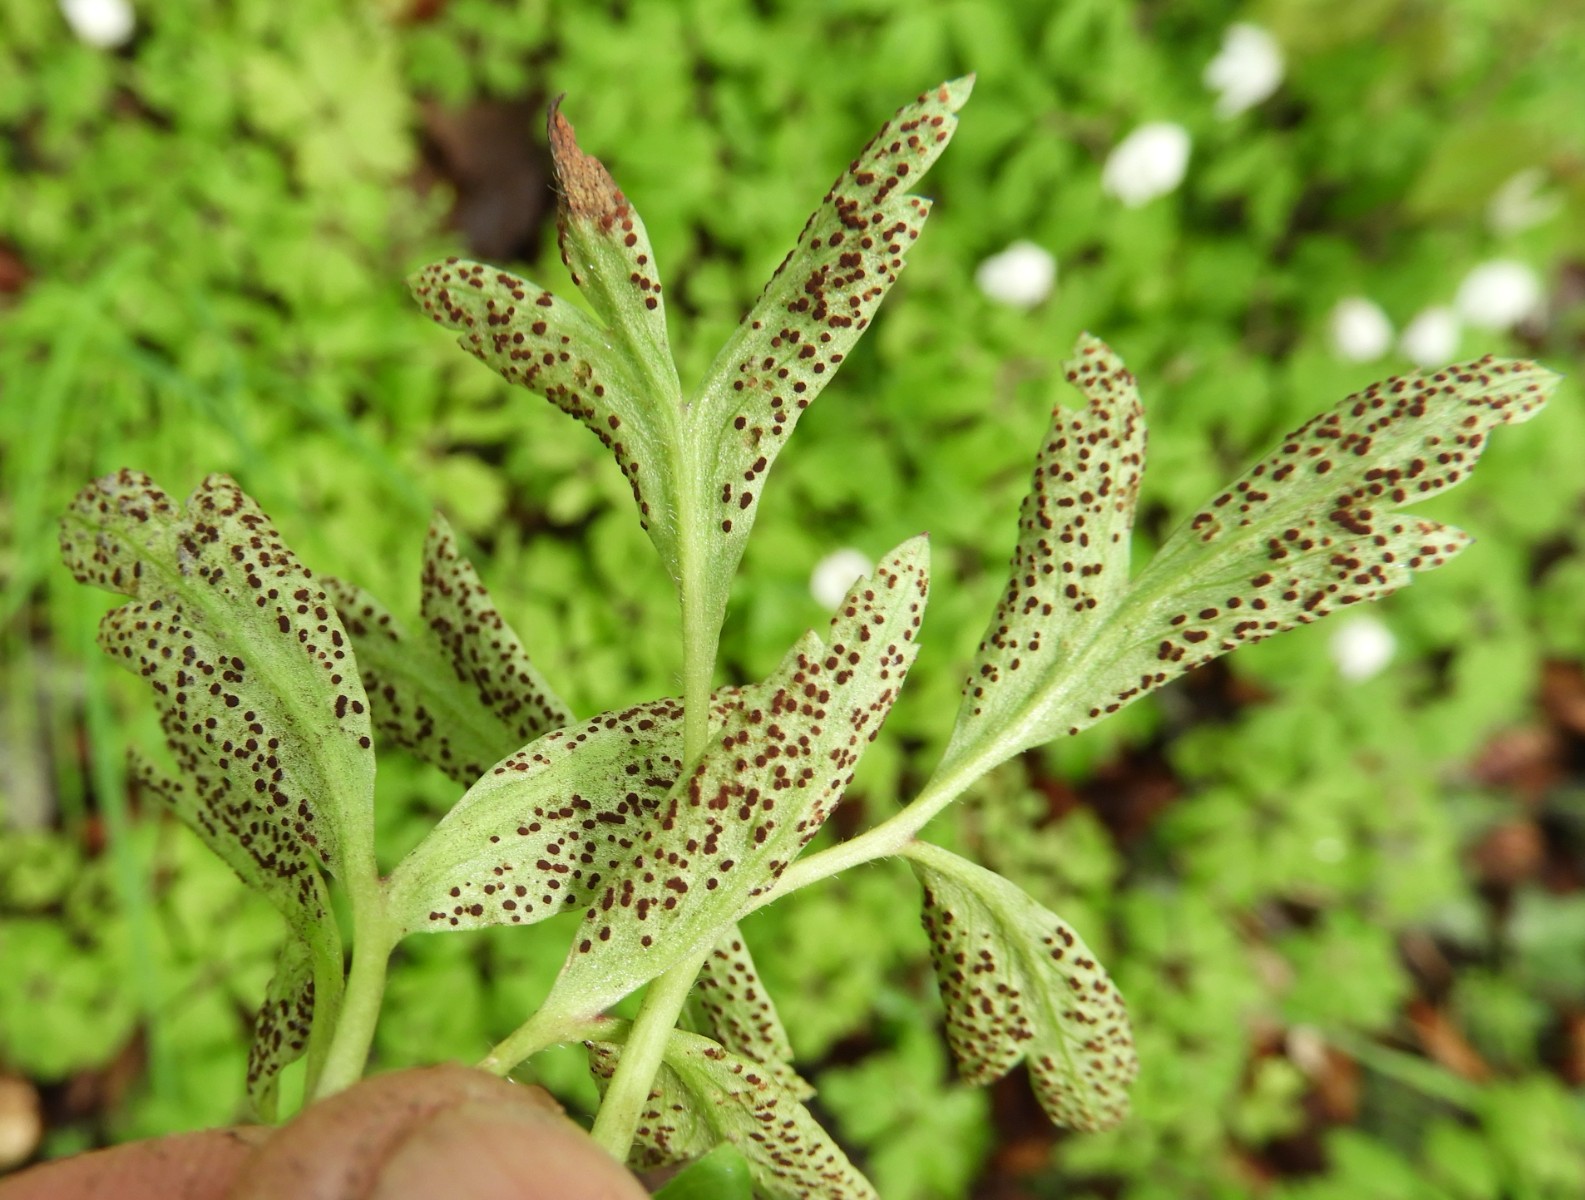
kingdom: Fungi
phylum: Basidiomycota
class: Pucciniomycetes
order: Pucciniales
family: Tranzscheliaceae
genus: Tranzschelia
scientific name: Tranzschelia anemones
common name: anemone-knæksporerust
